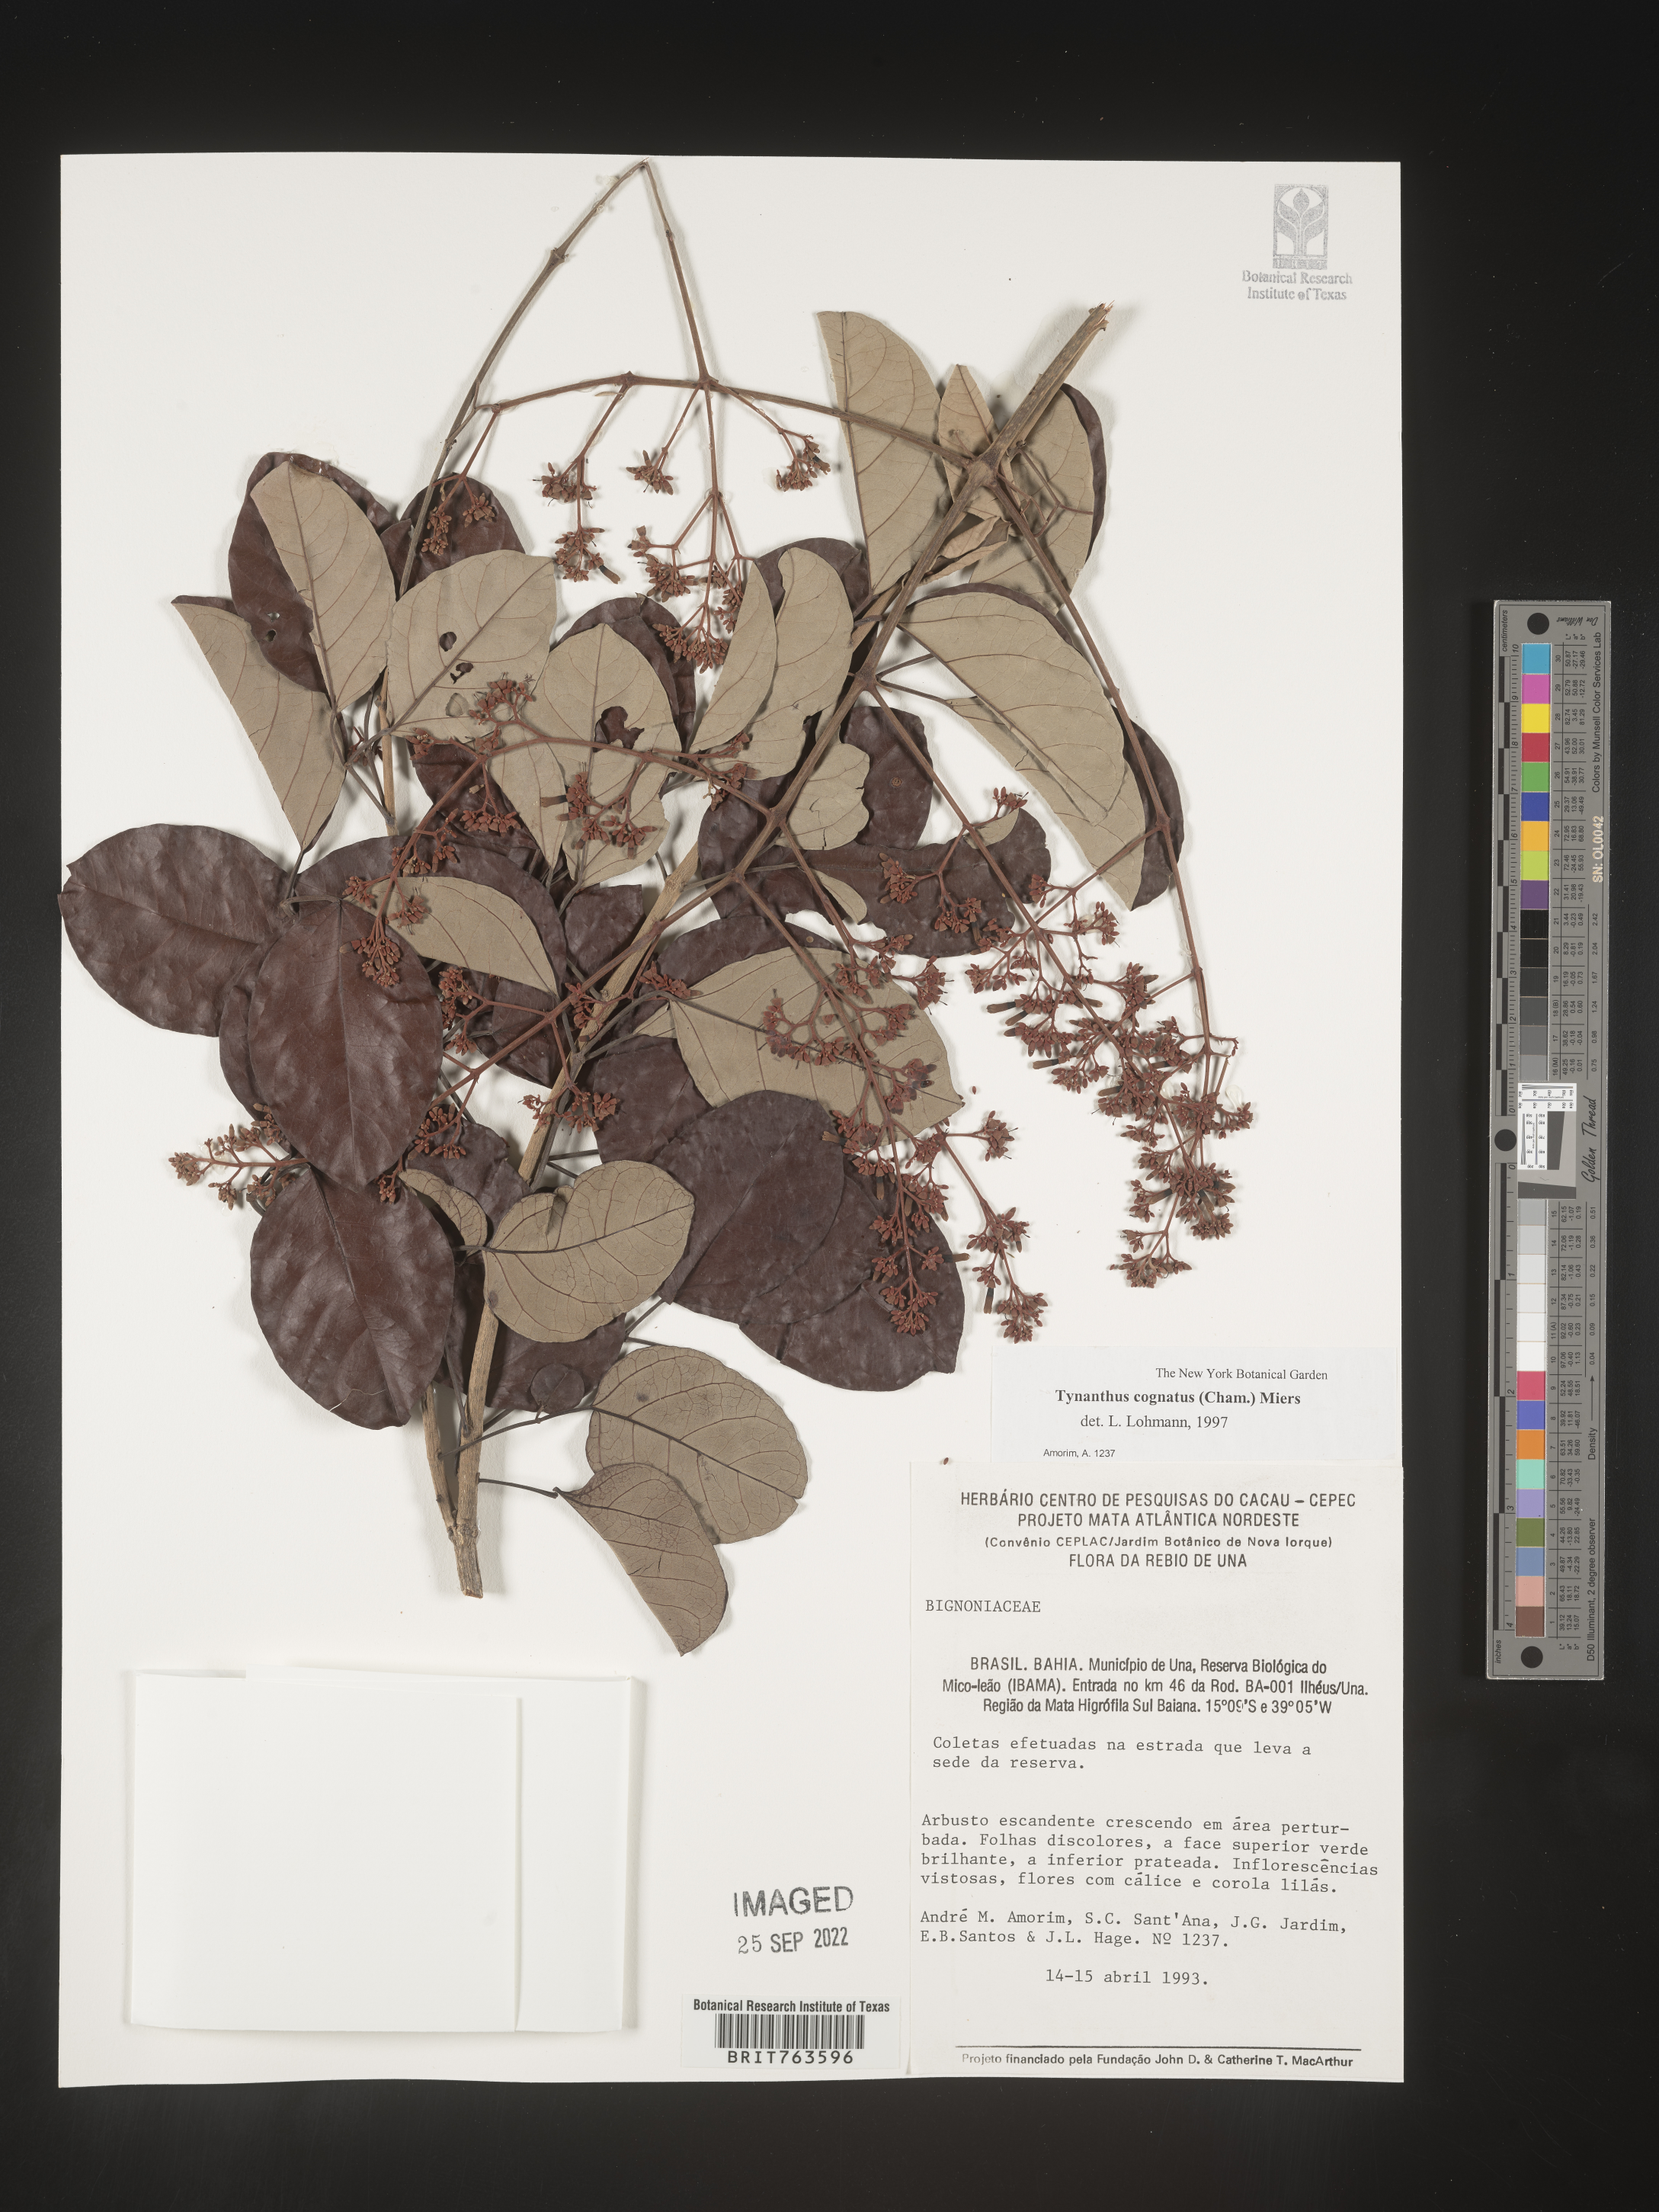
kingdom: Plantae
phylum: Tracheophyta
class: Magnoliopsida
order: Lamiales
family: Bignoniaceae
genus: Tynanthus
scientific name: Tynanthus
